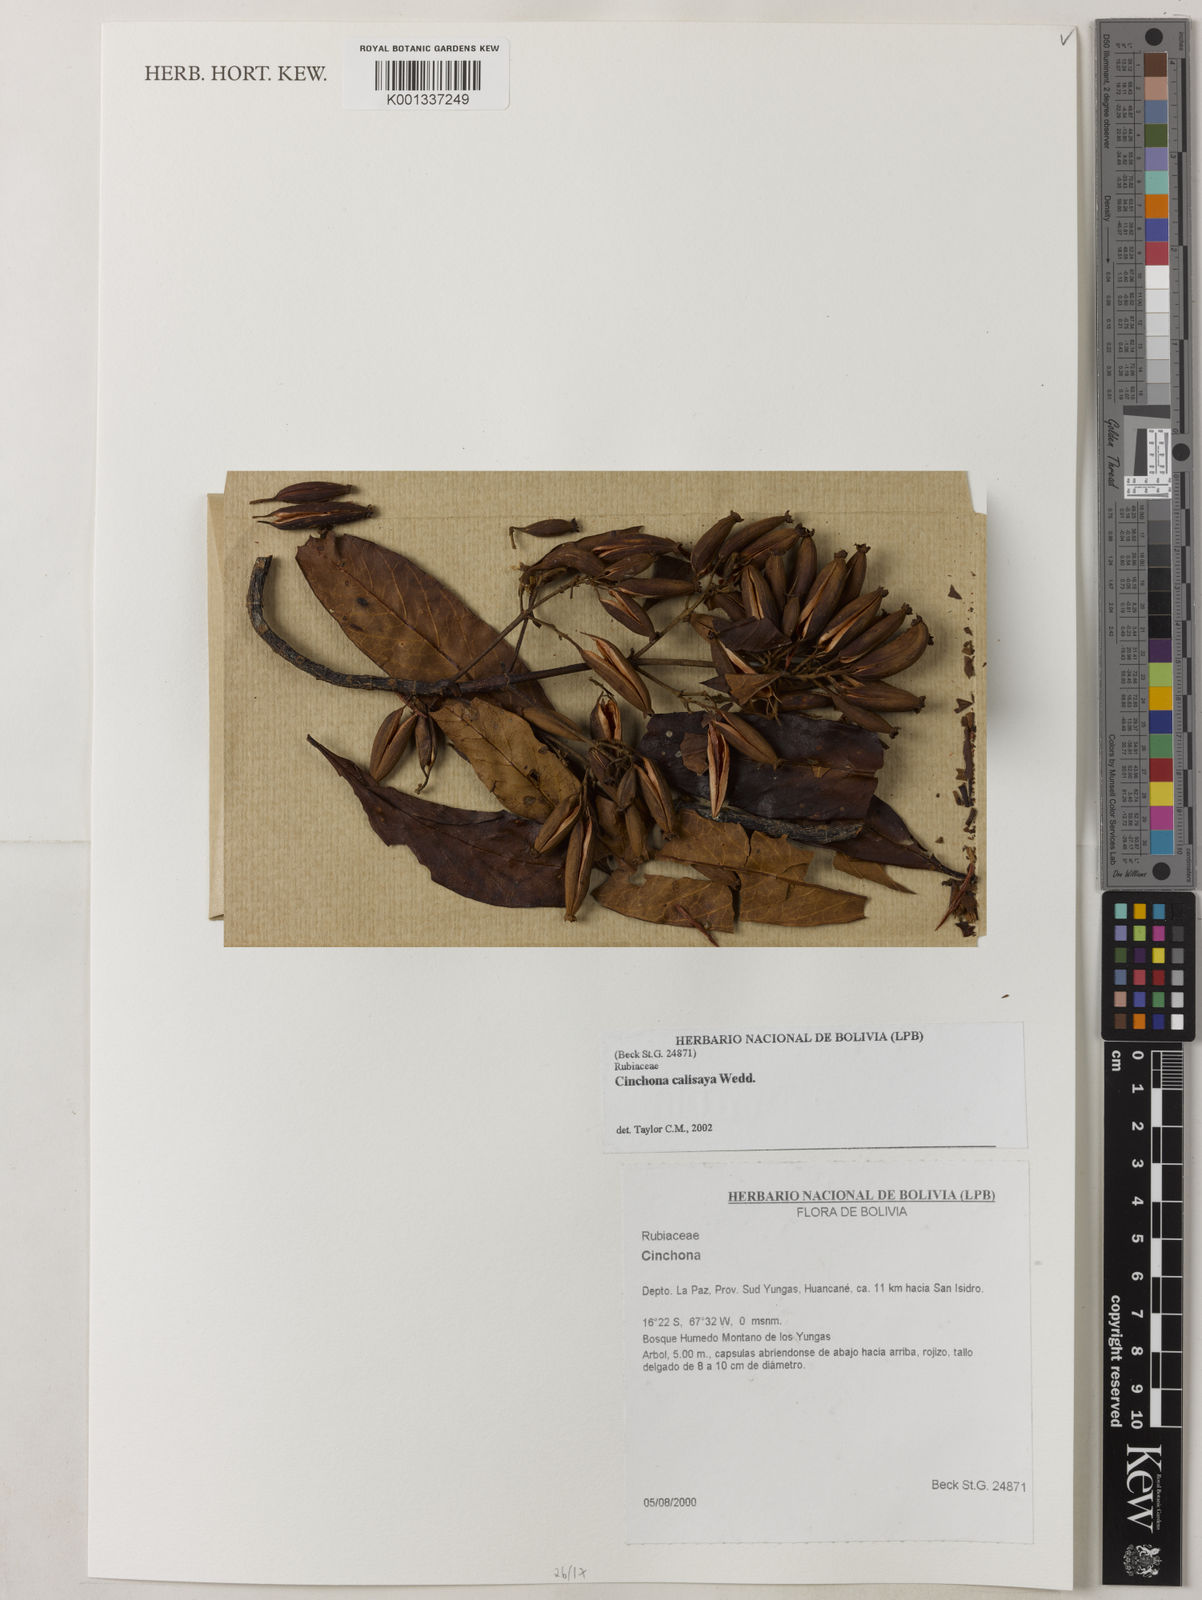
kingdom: Plantae
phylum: Tracheophyta
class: Magnoliopsida
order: Gentianales
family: Rubiaceae
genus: Cinchona
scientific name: Cinchona calisaya
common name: Ledgerbark
